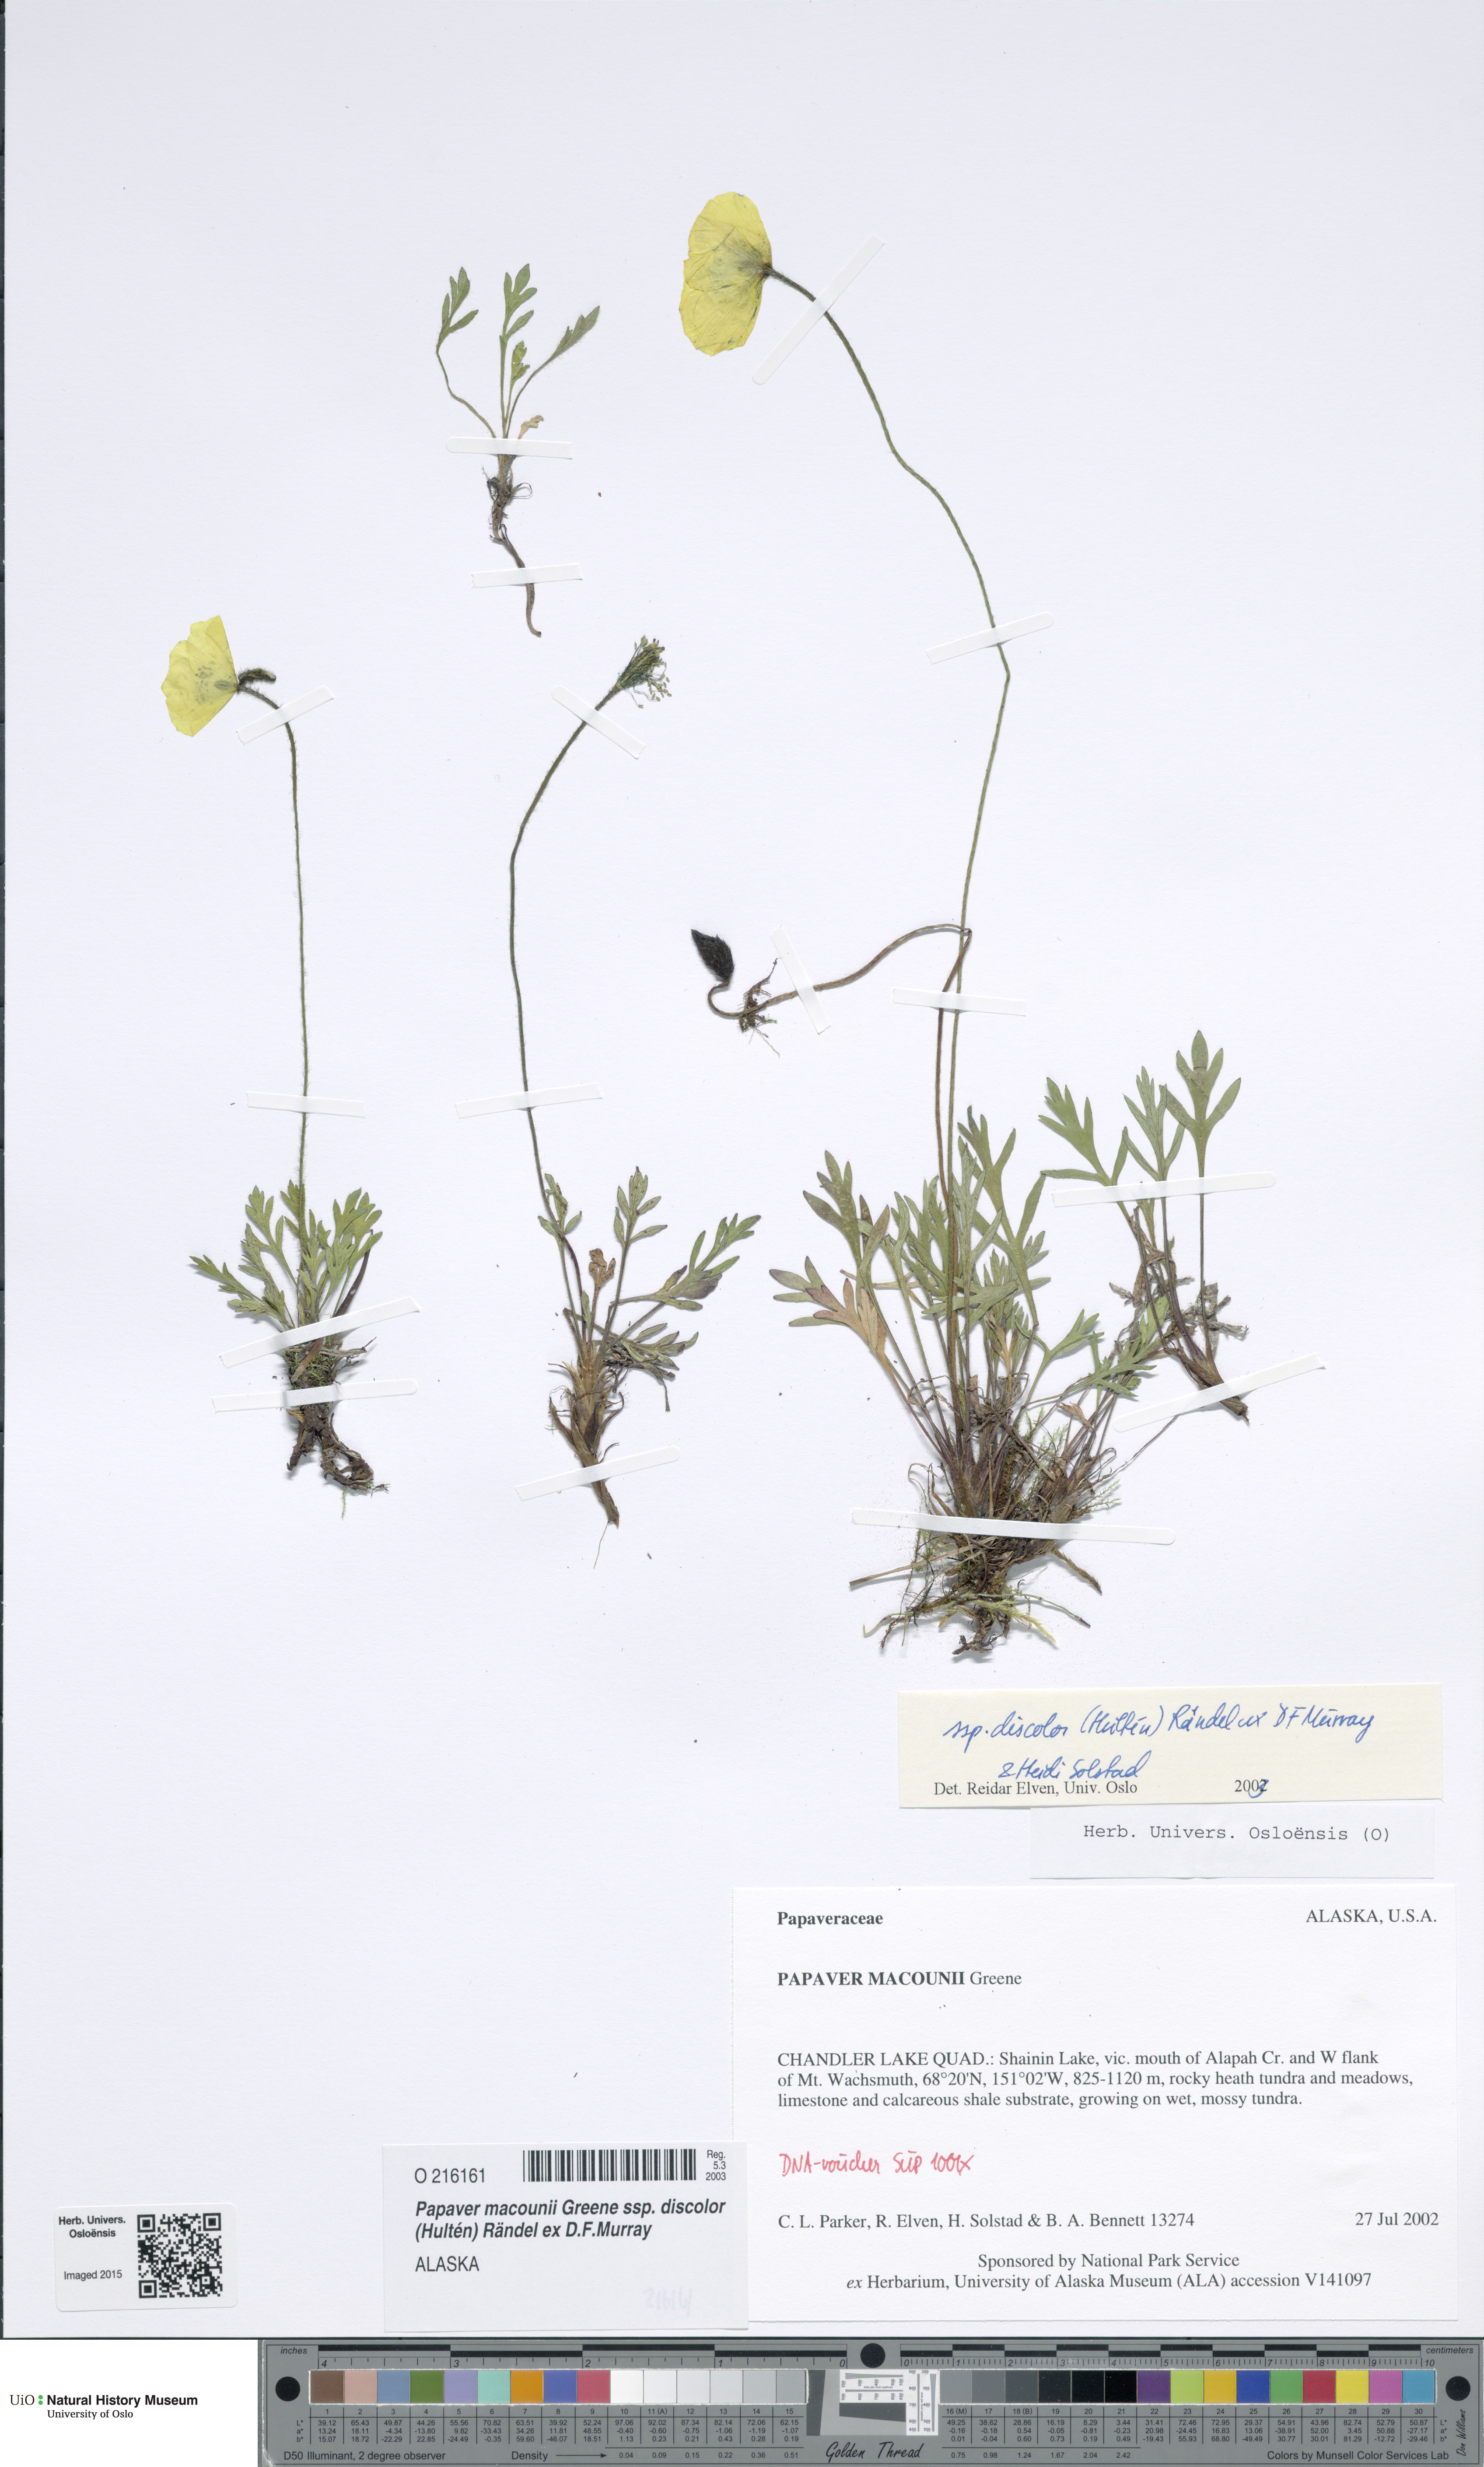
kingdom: Plantae
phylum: Tracheophyta
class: Magnoliopsida
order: Ranunculales
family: Papaveraceae
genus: Papaver
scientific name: Papaver macounii
